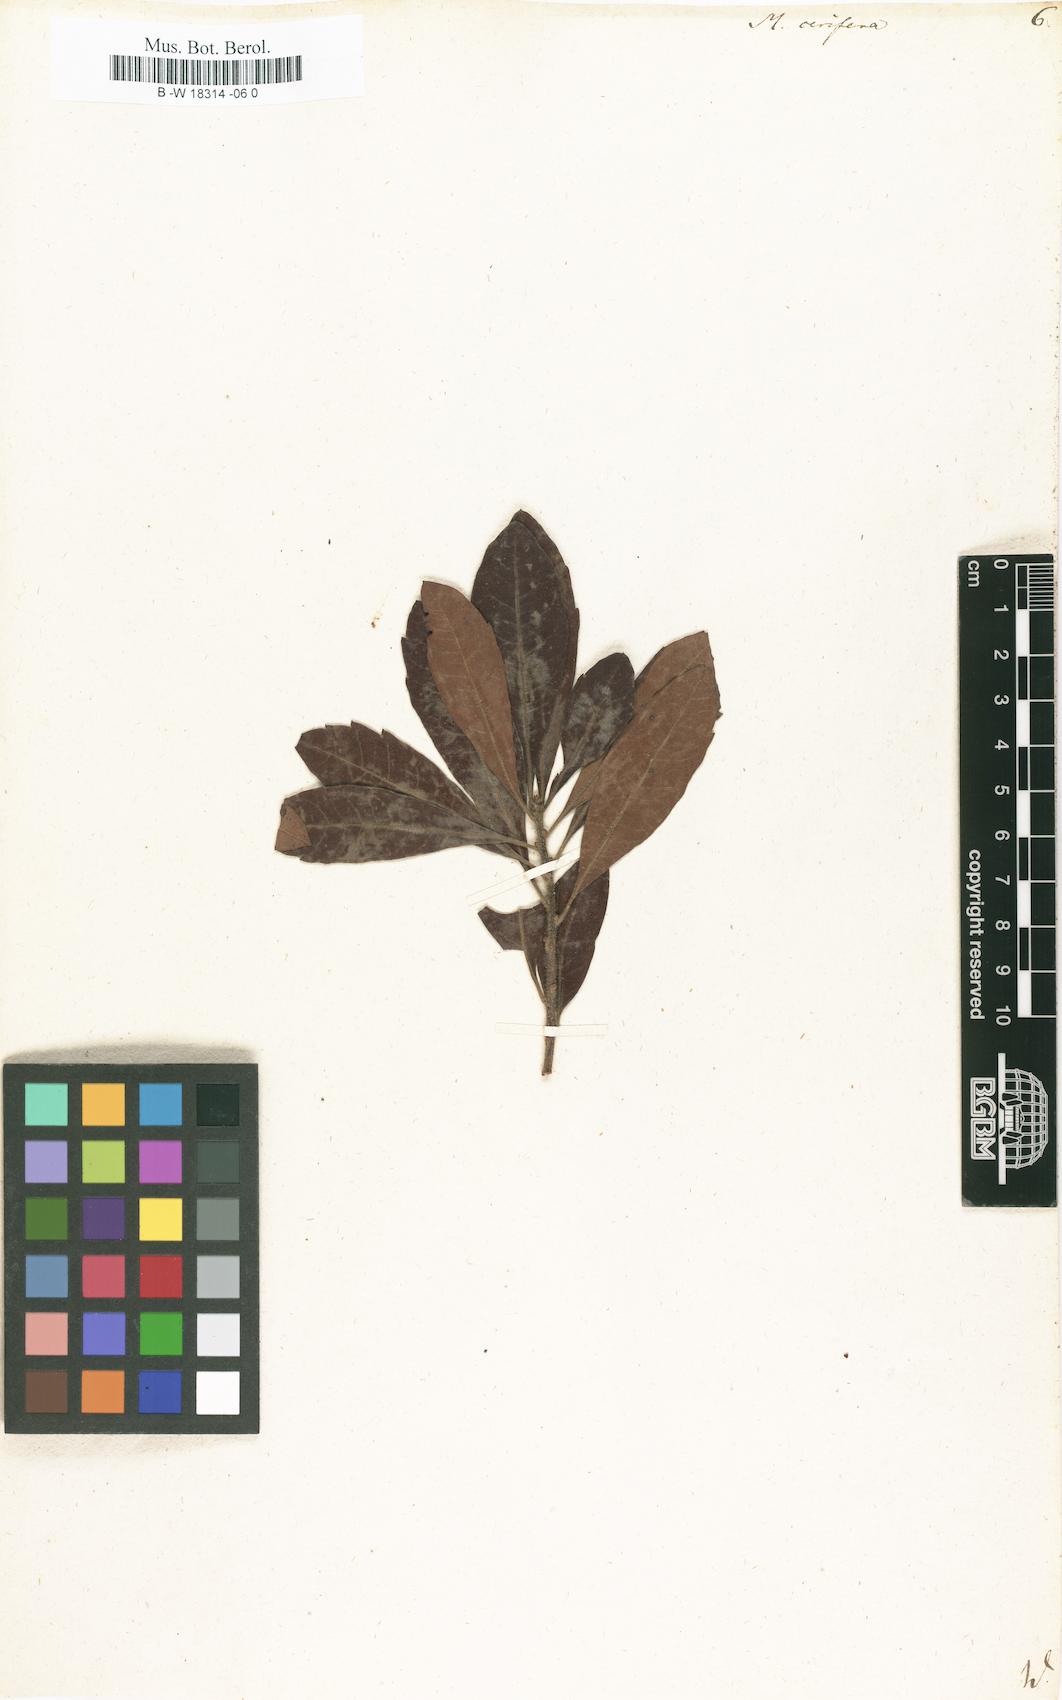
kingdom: Plantae
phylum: Tracheophyta
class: Magnoliopsida
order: Fagales
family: Myricaceae
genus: Morella
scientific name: Morella cerifera
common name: Wax myrtle
